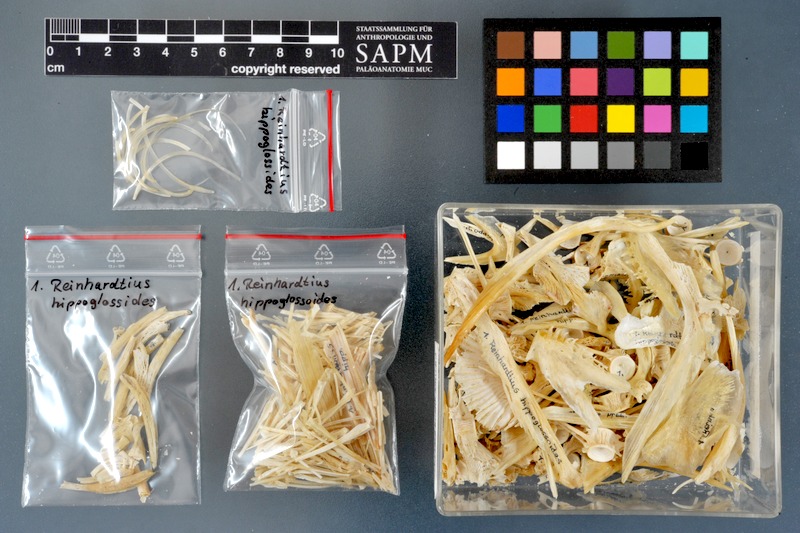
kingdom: Animalia
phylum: Chordata
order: Pleuronectiformes
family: Pleuronectidae
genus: Reinhardtius
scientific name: Reinhardtius hippoglossoides
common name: Greenland halibut
